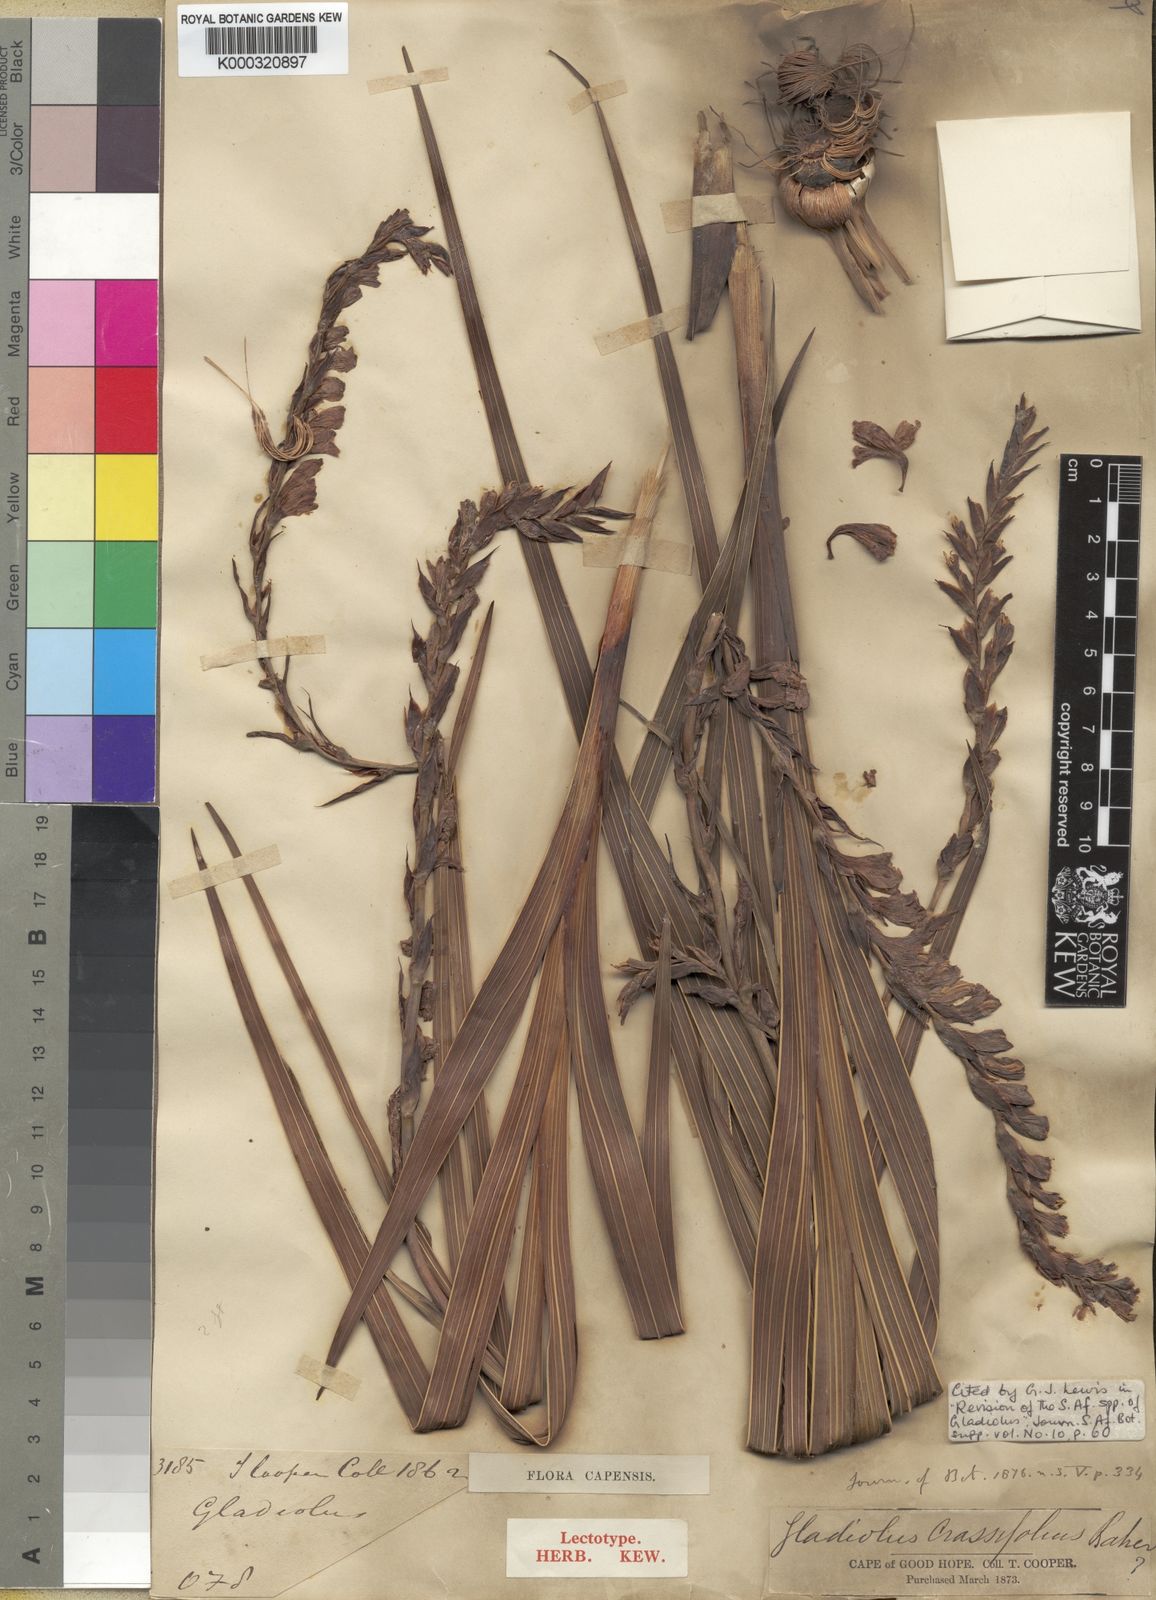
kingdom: Plantae
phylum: Tracheophyta
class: Liliopsida
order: Asparagales
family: Iridaceae
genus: Gladiolus
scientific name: Gladiolus crassifolius
